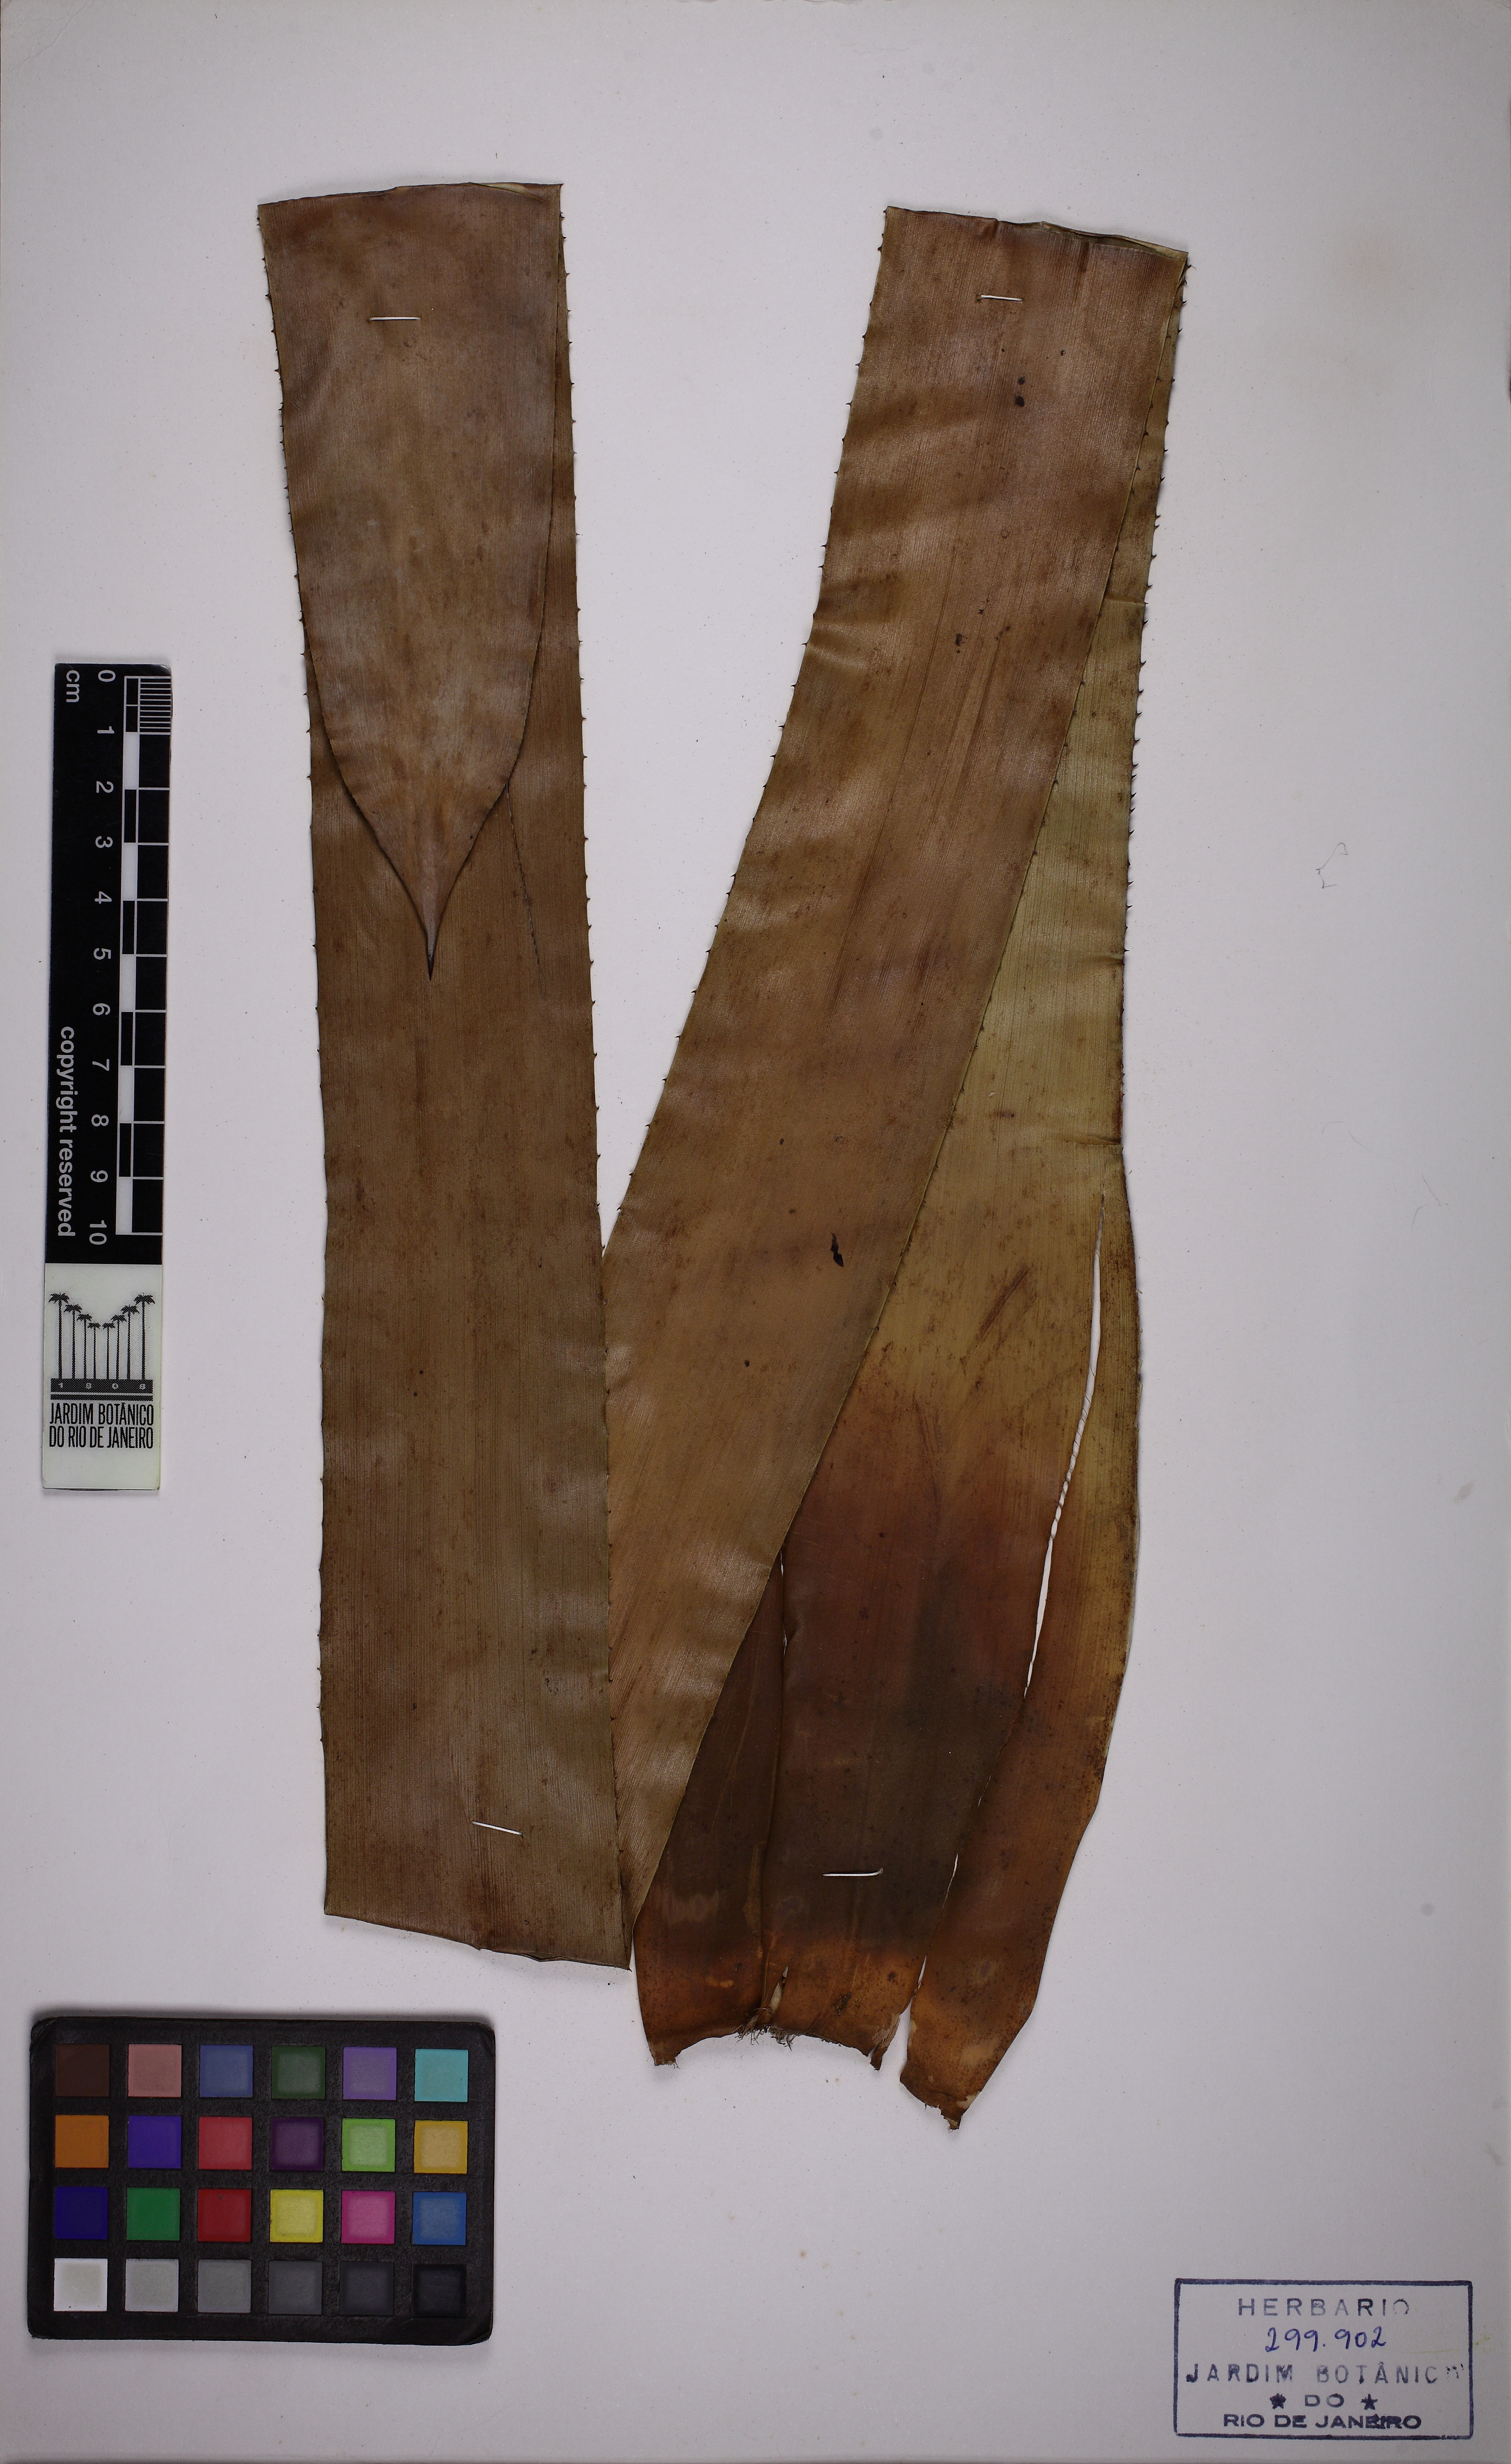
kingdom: Plantae
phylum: Tracheophyta
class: Liliopsida
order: Poales
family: Bromeliaceae
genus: Quesnelia
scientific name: Quesnelia quesneliana
